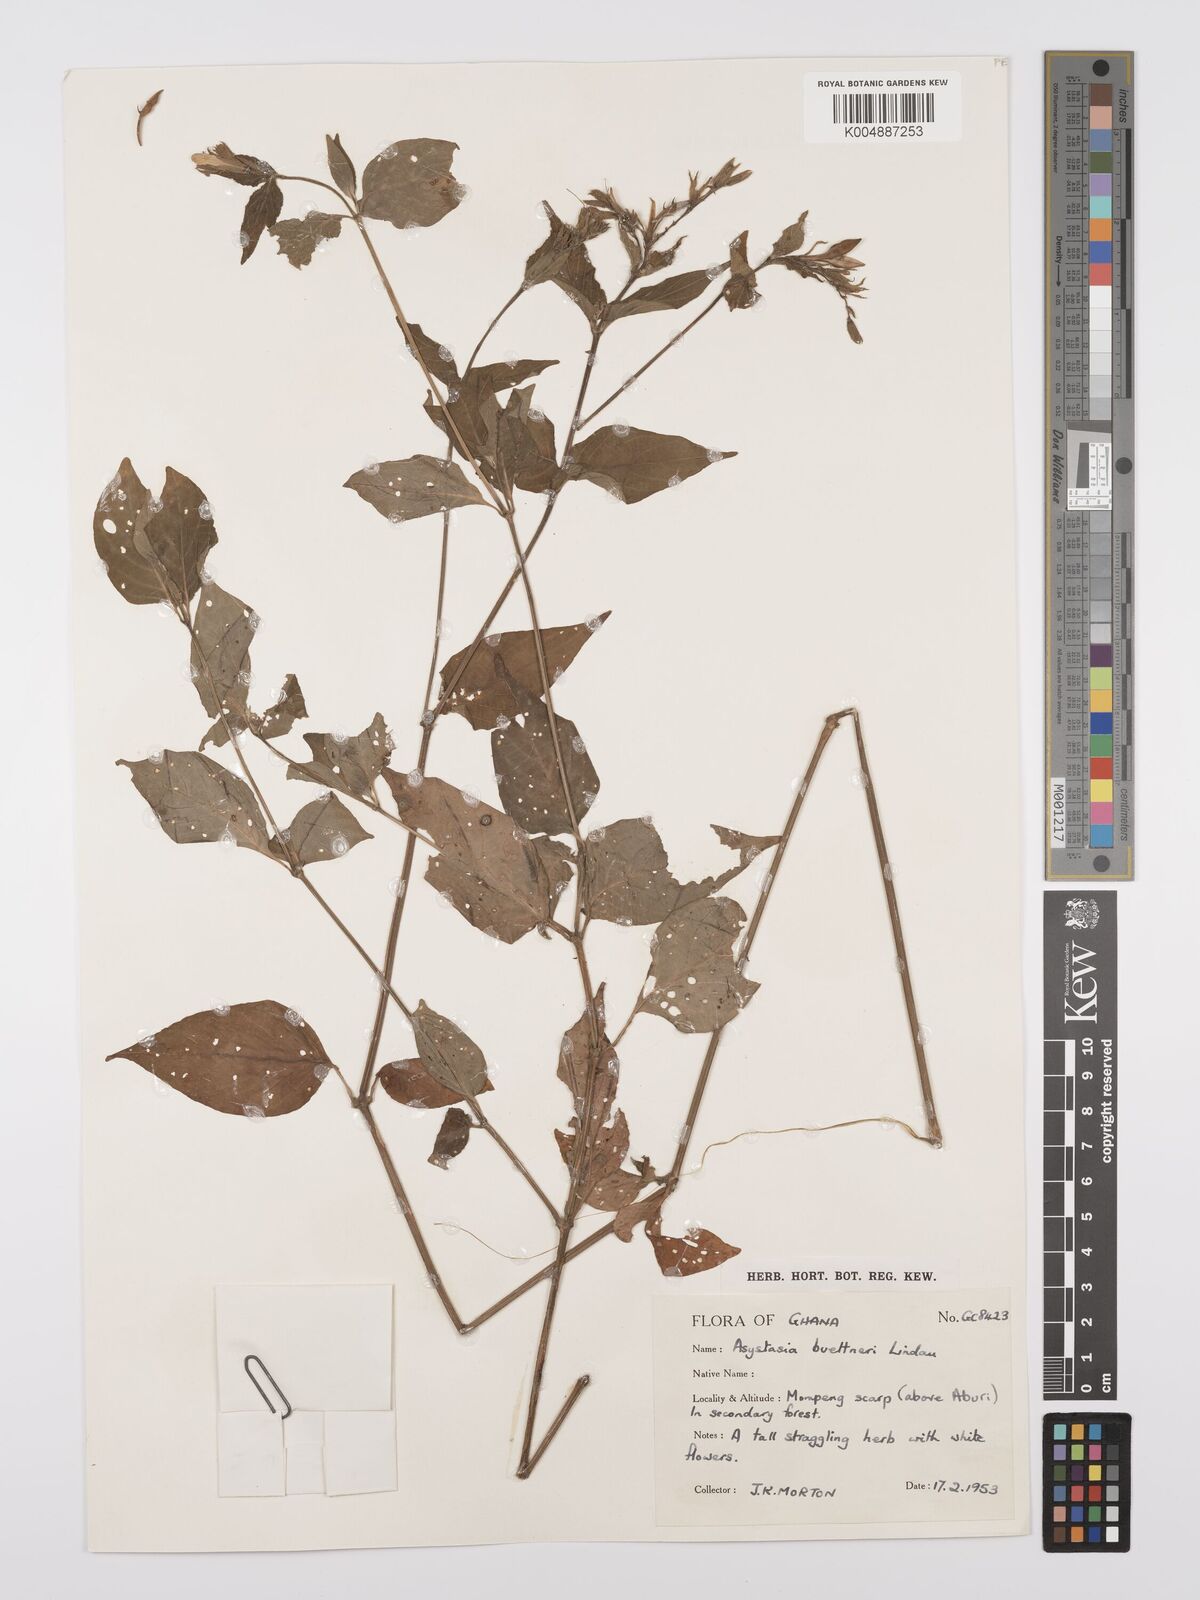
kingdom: Plantae
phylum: Tracheophyta
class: Magnoliopsida
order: Lamiales
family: Acanthaceae
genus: Asystasia
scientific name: Asystasia buettneri
